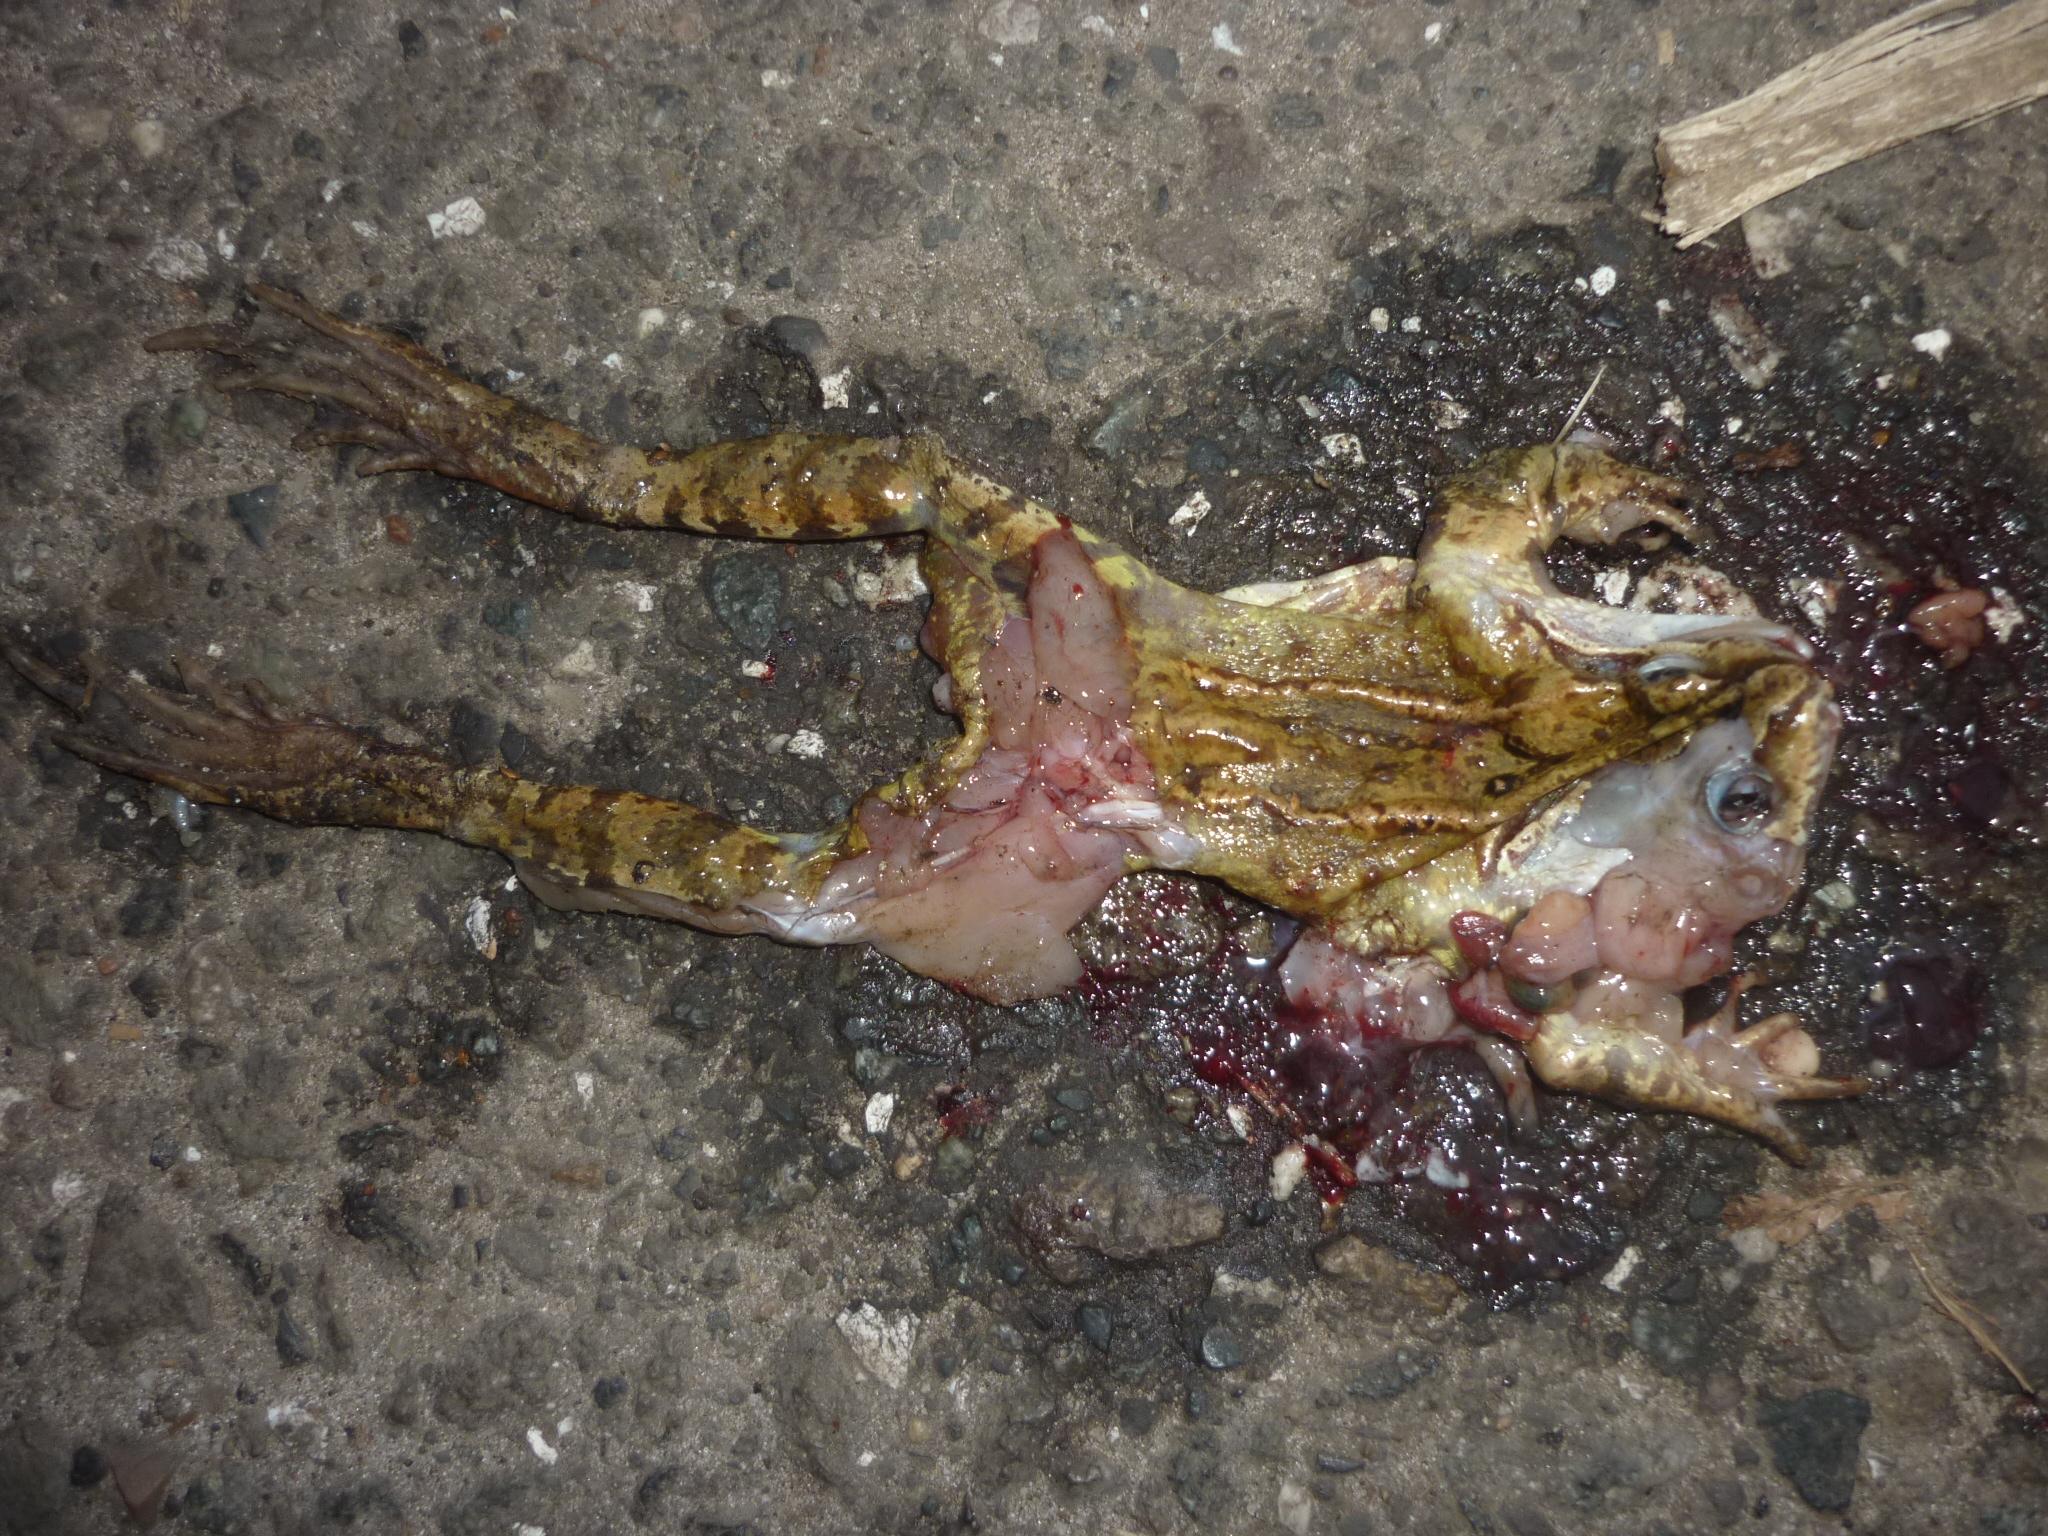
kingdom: Animalia
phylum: Chordata
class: Amphibia
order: Anura
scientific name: Anura
